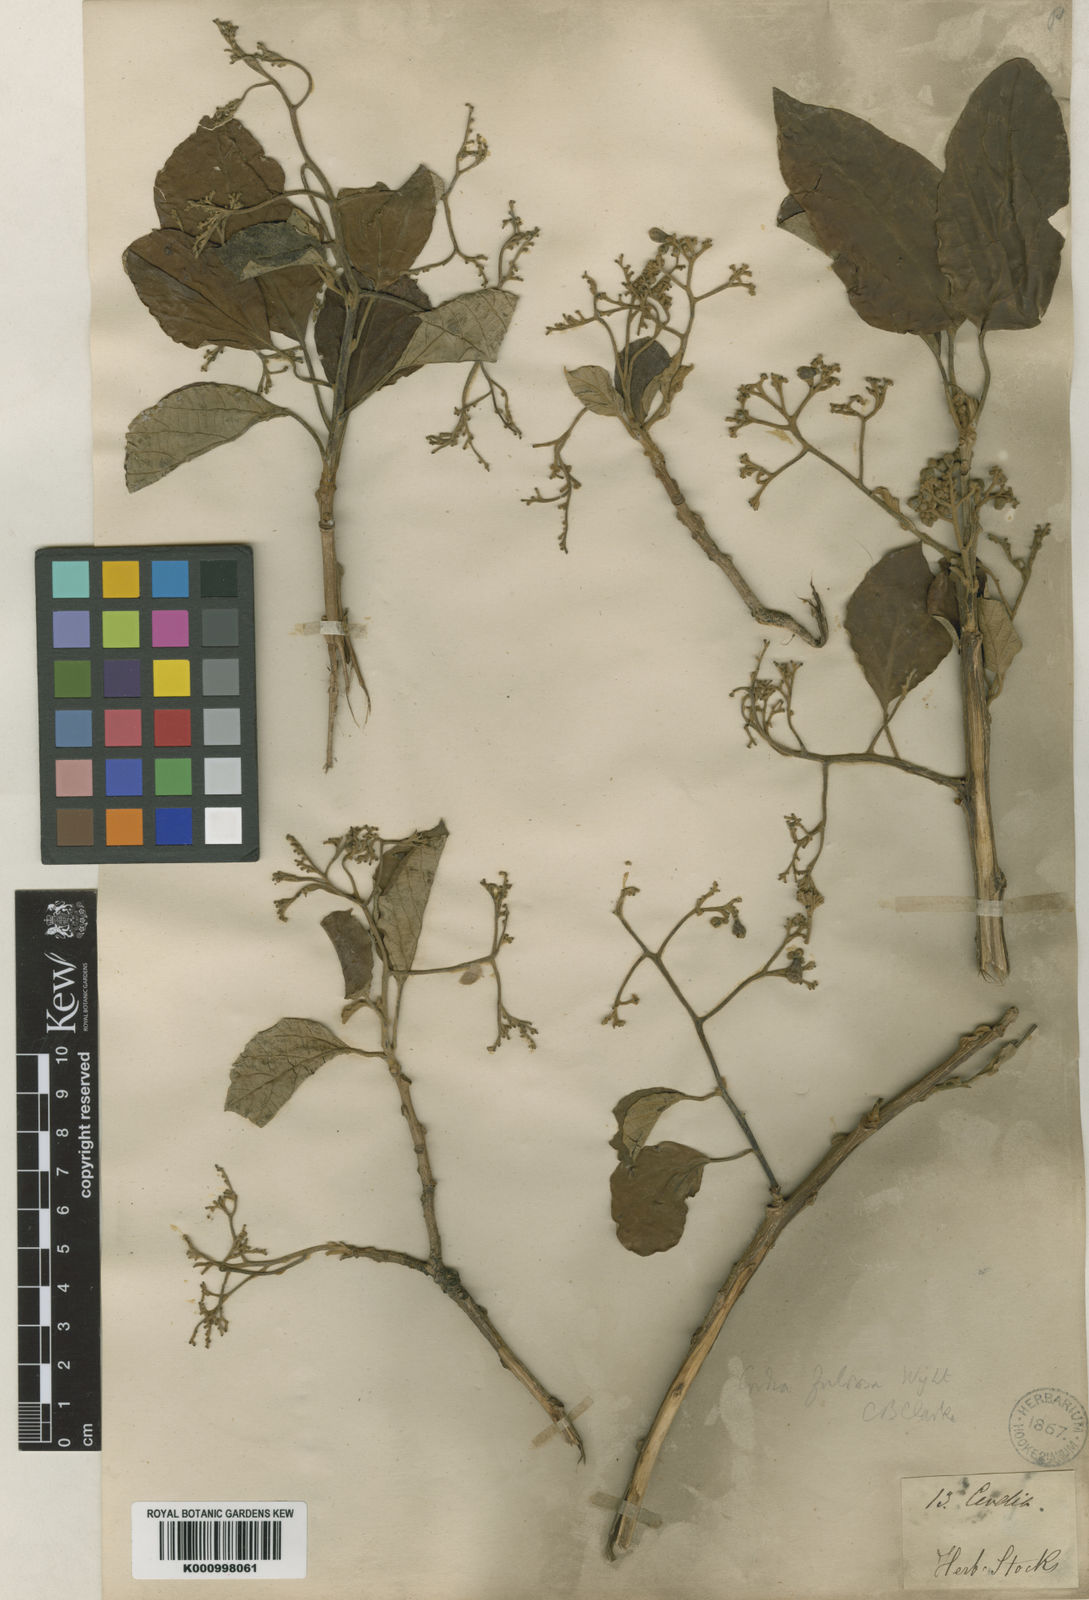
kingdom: Plantae
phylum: Tracheophyta
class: Magnoliopsida
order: Boraginales
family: Cordiaceae
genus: Cordia
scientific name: Cordia myxa
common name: Assyrian plum
